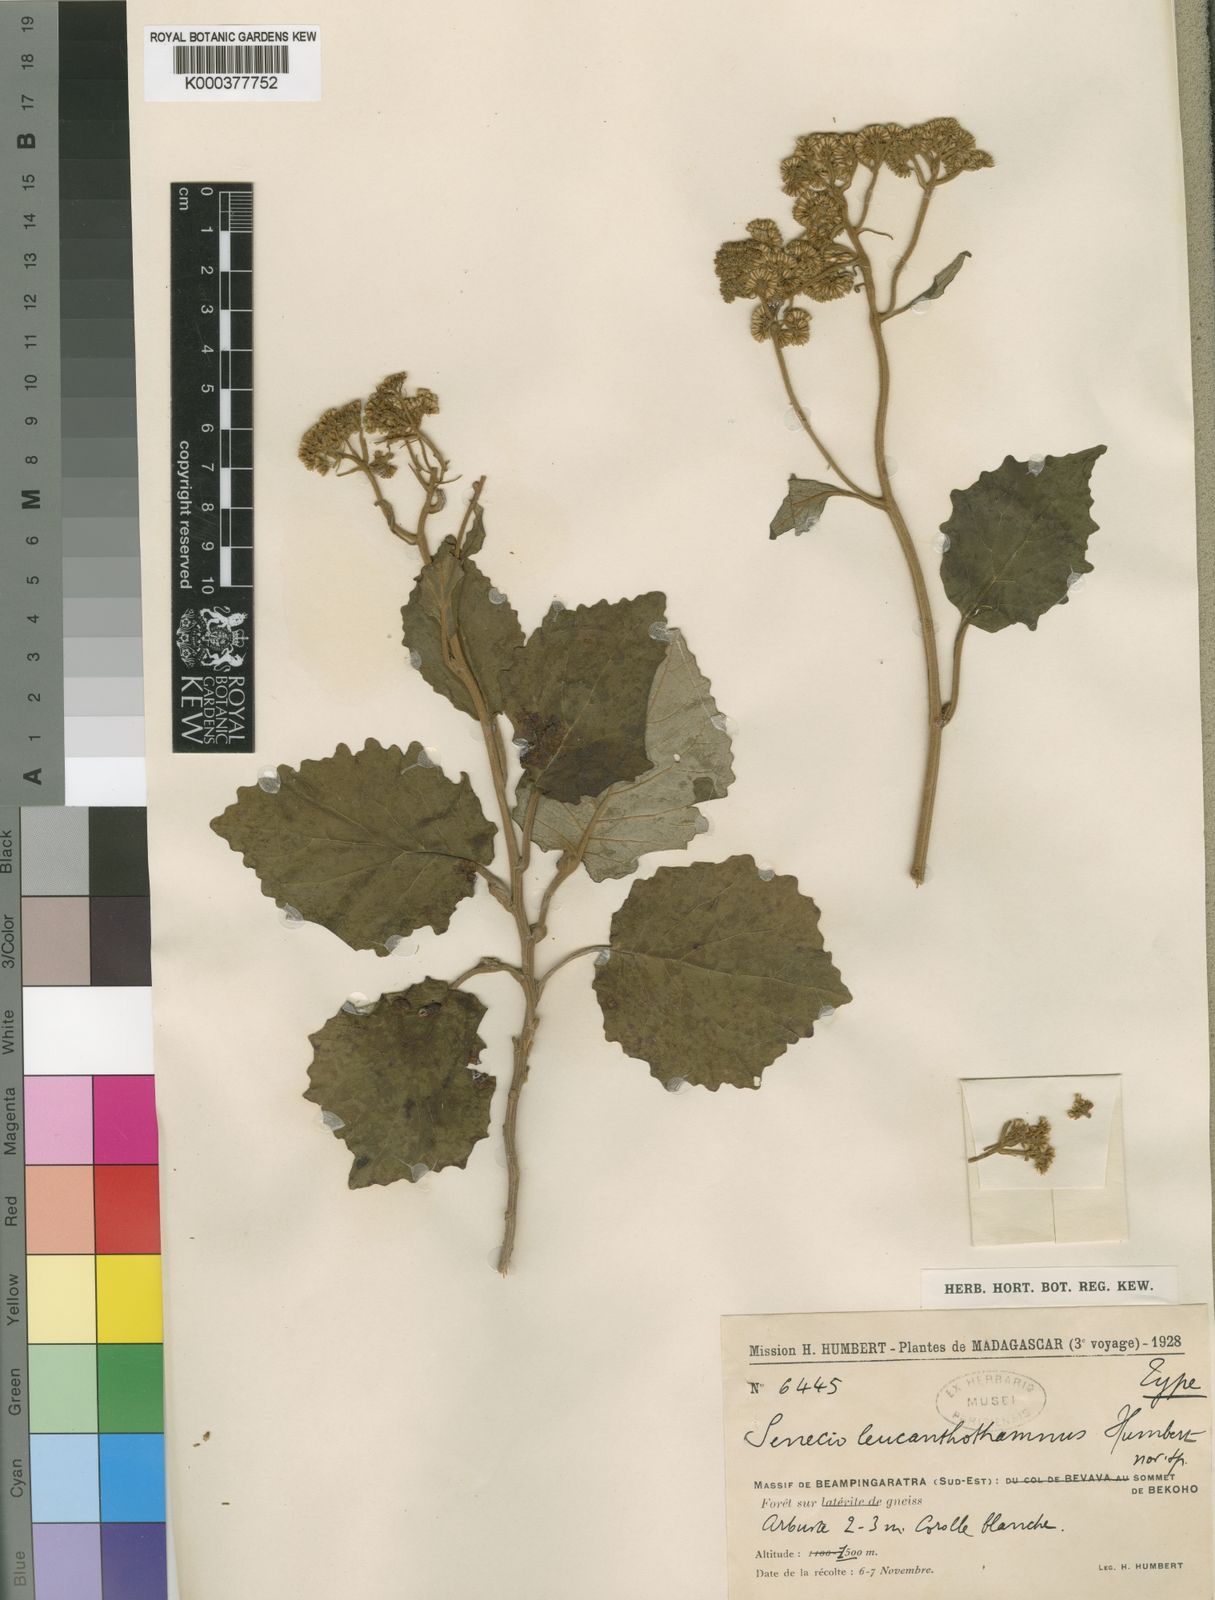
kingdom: Plantae
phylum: Tracheophyta
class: Magnoliopsida
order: Asterales
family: Asteraceae
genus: Hubertia
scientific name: Hubertia leucanthothamnus
